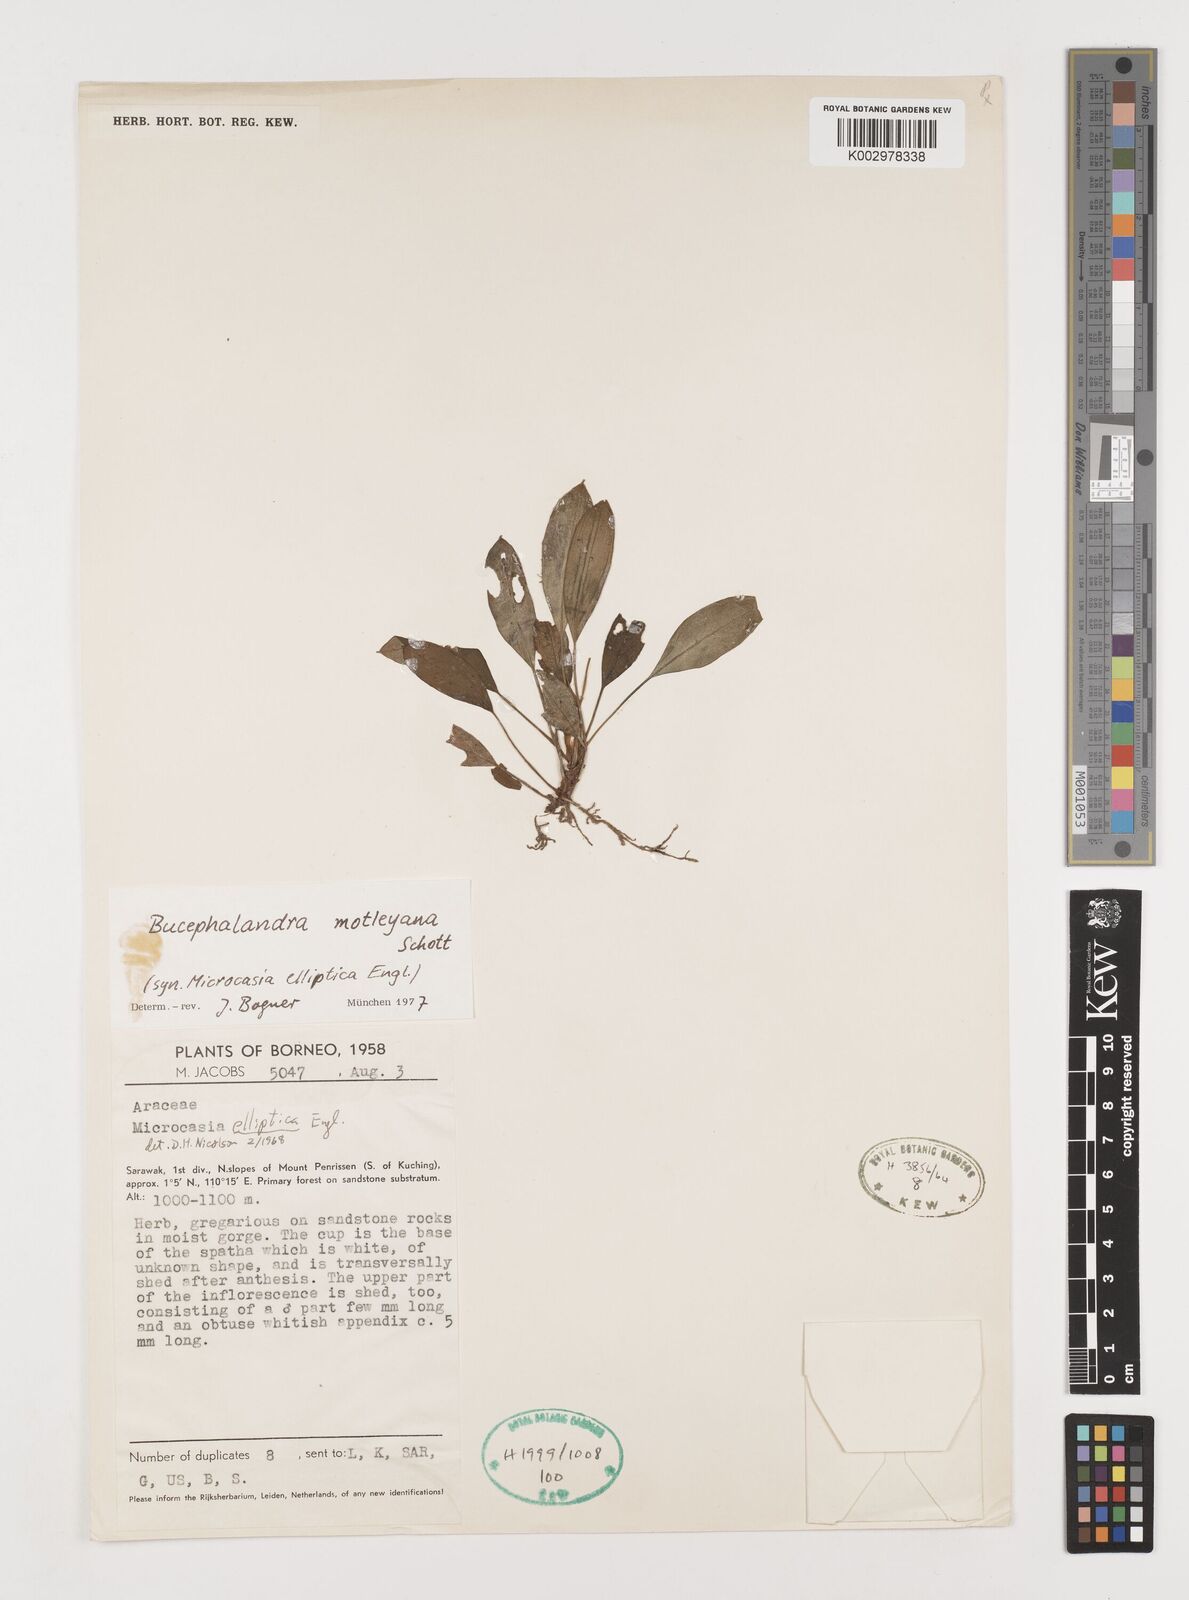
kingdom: Plantae
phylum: Tracheophyta
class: Liliopsida
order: Alismatales
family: Araceae
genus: Bucephalandra
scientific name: Bucephalandra motleyana
